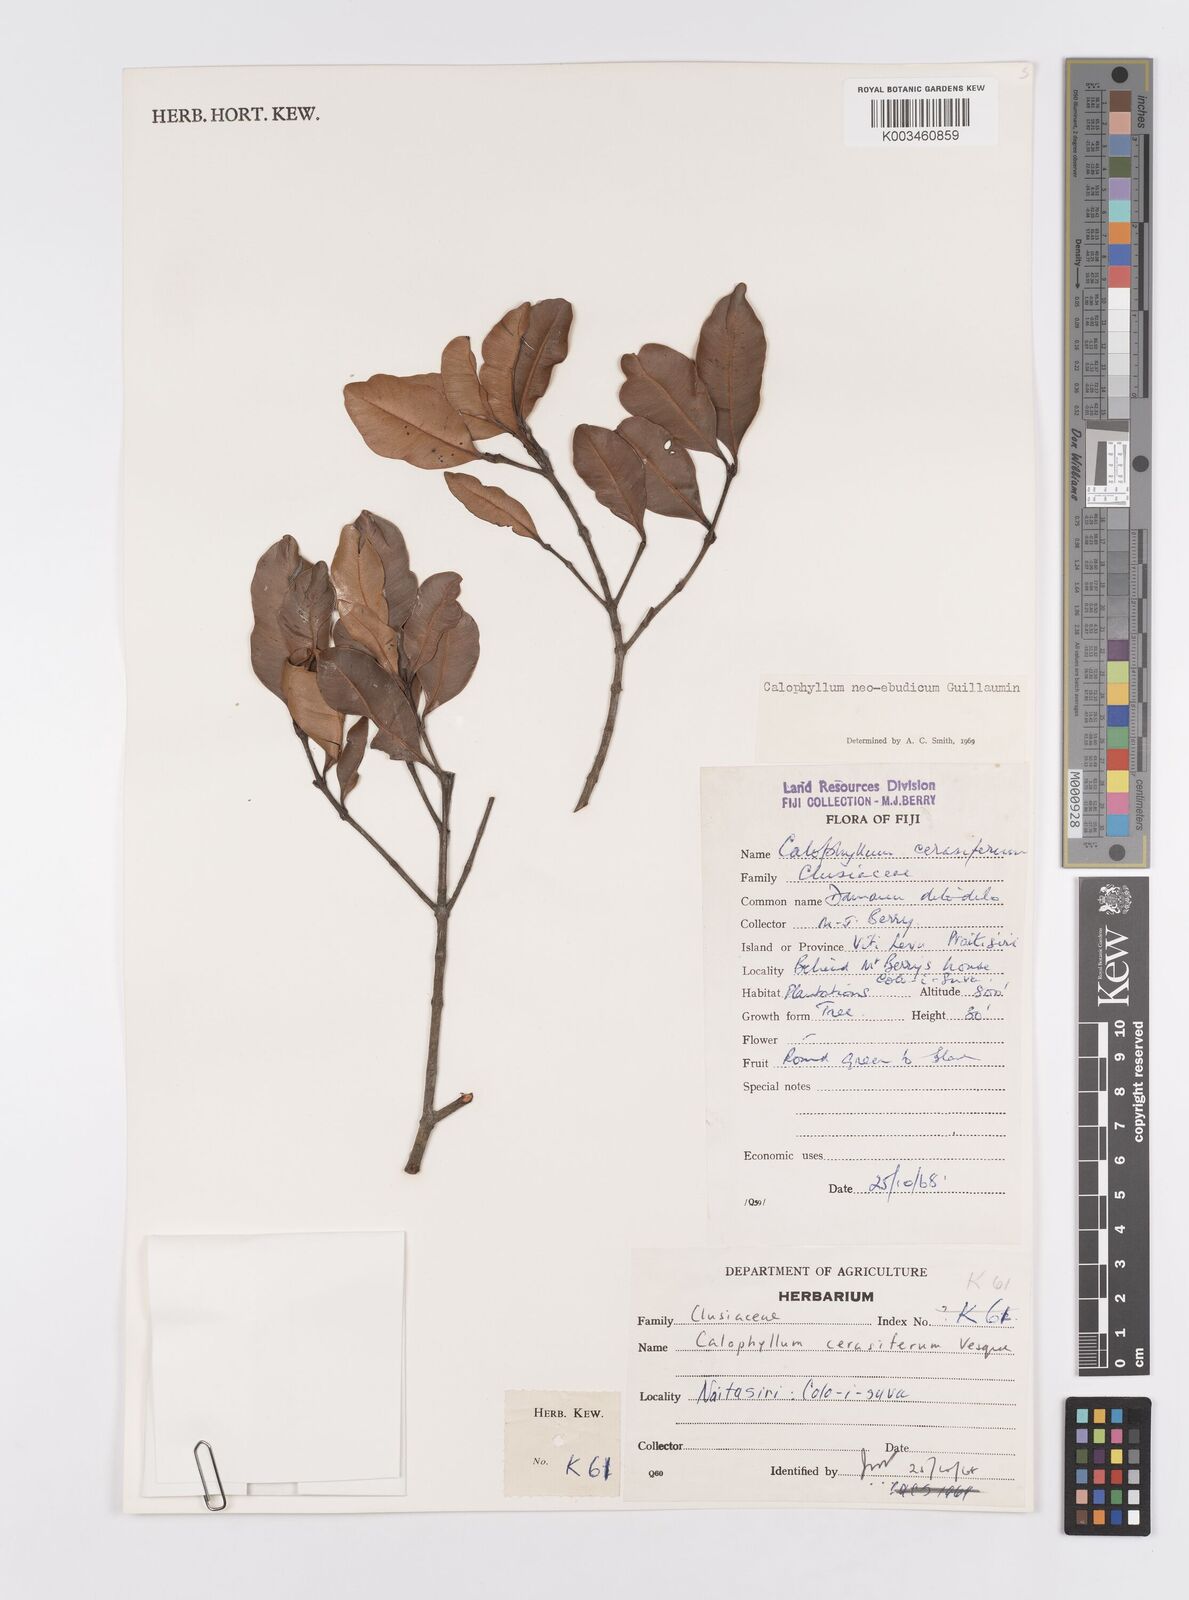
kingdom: Plantae
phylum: Tracheophyta
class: Magnoliopsida
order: Malpighiales
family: Calophyllaceae
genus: Calophyllum
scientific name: Calophyllum neoebudicum
